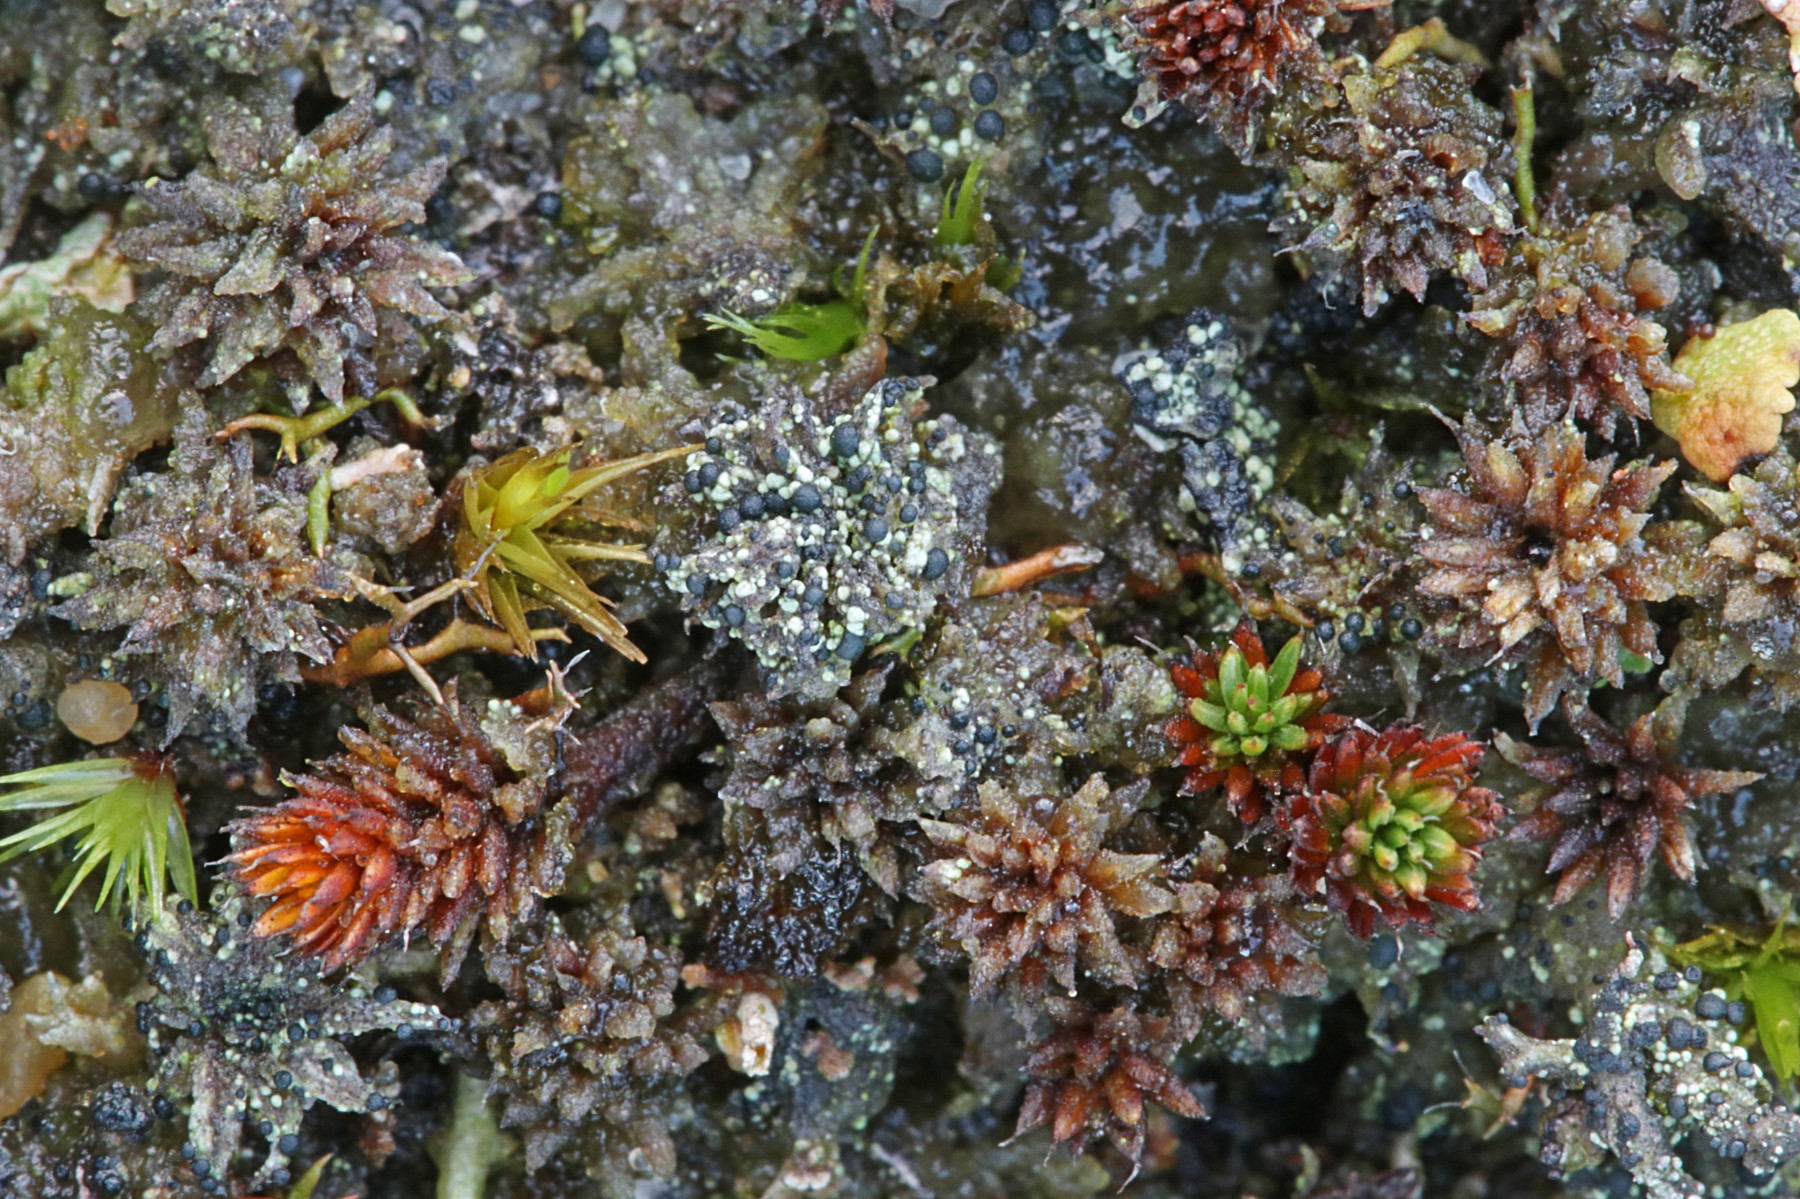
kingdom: Fungi
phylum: Ascomycota
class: Lecanoromycetes
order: Lecanorales
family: Byssolomataceae
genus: Micarea
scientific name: Micarea lignaria
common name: tørve-knaplav
